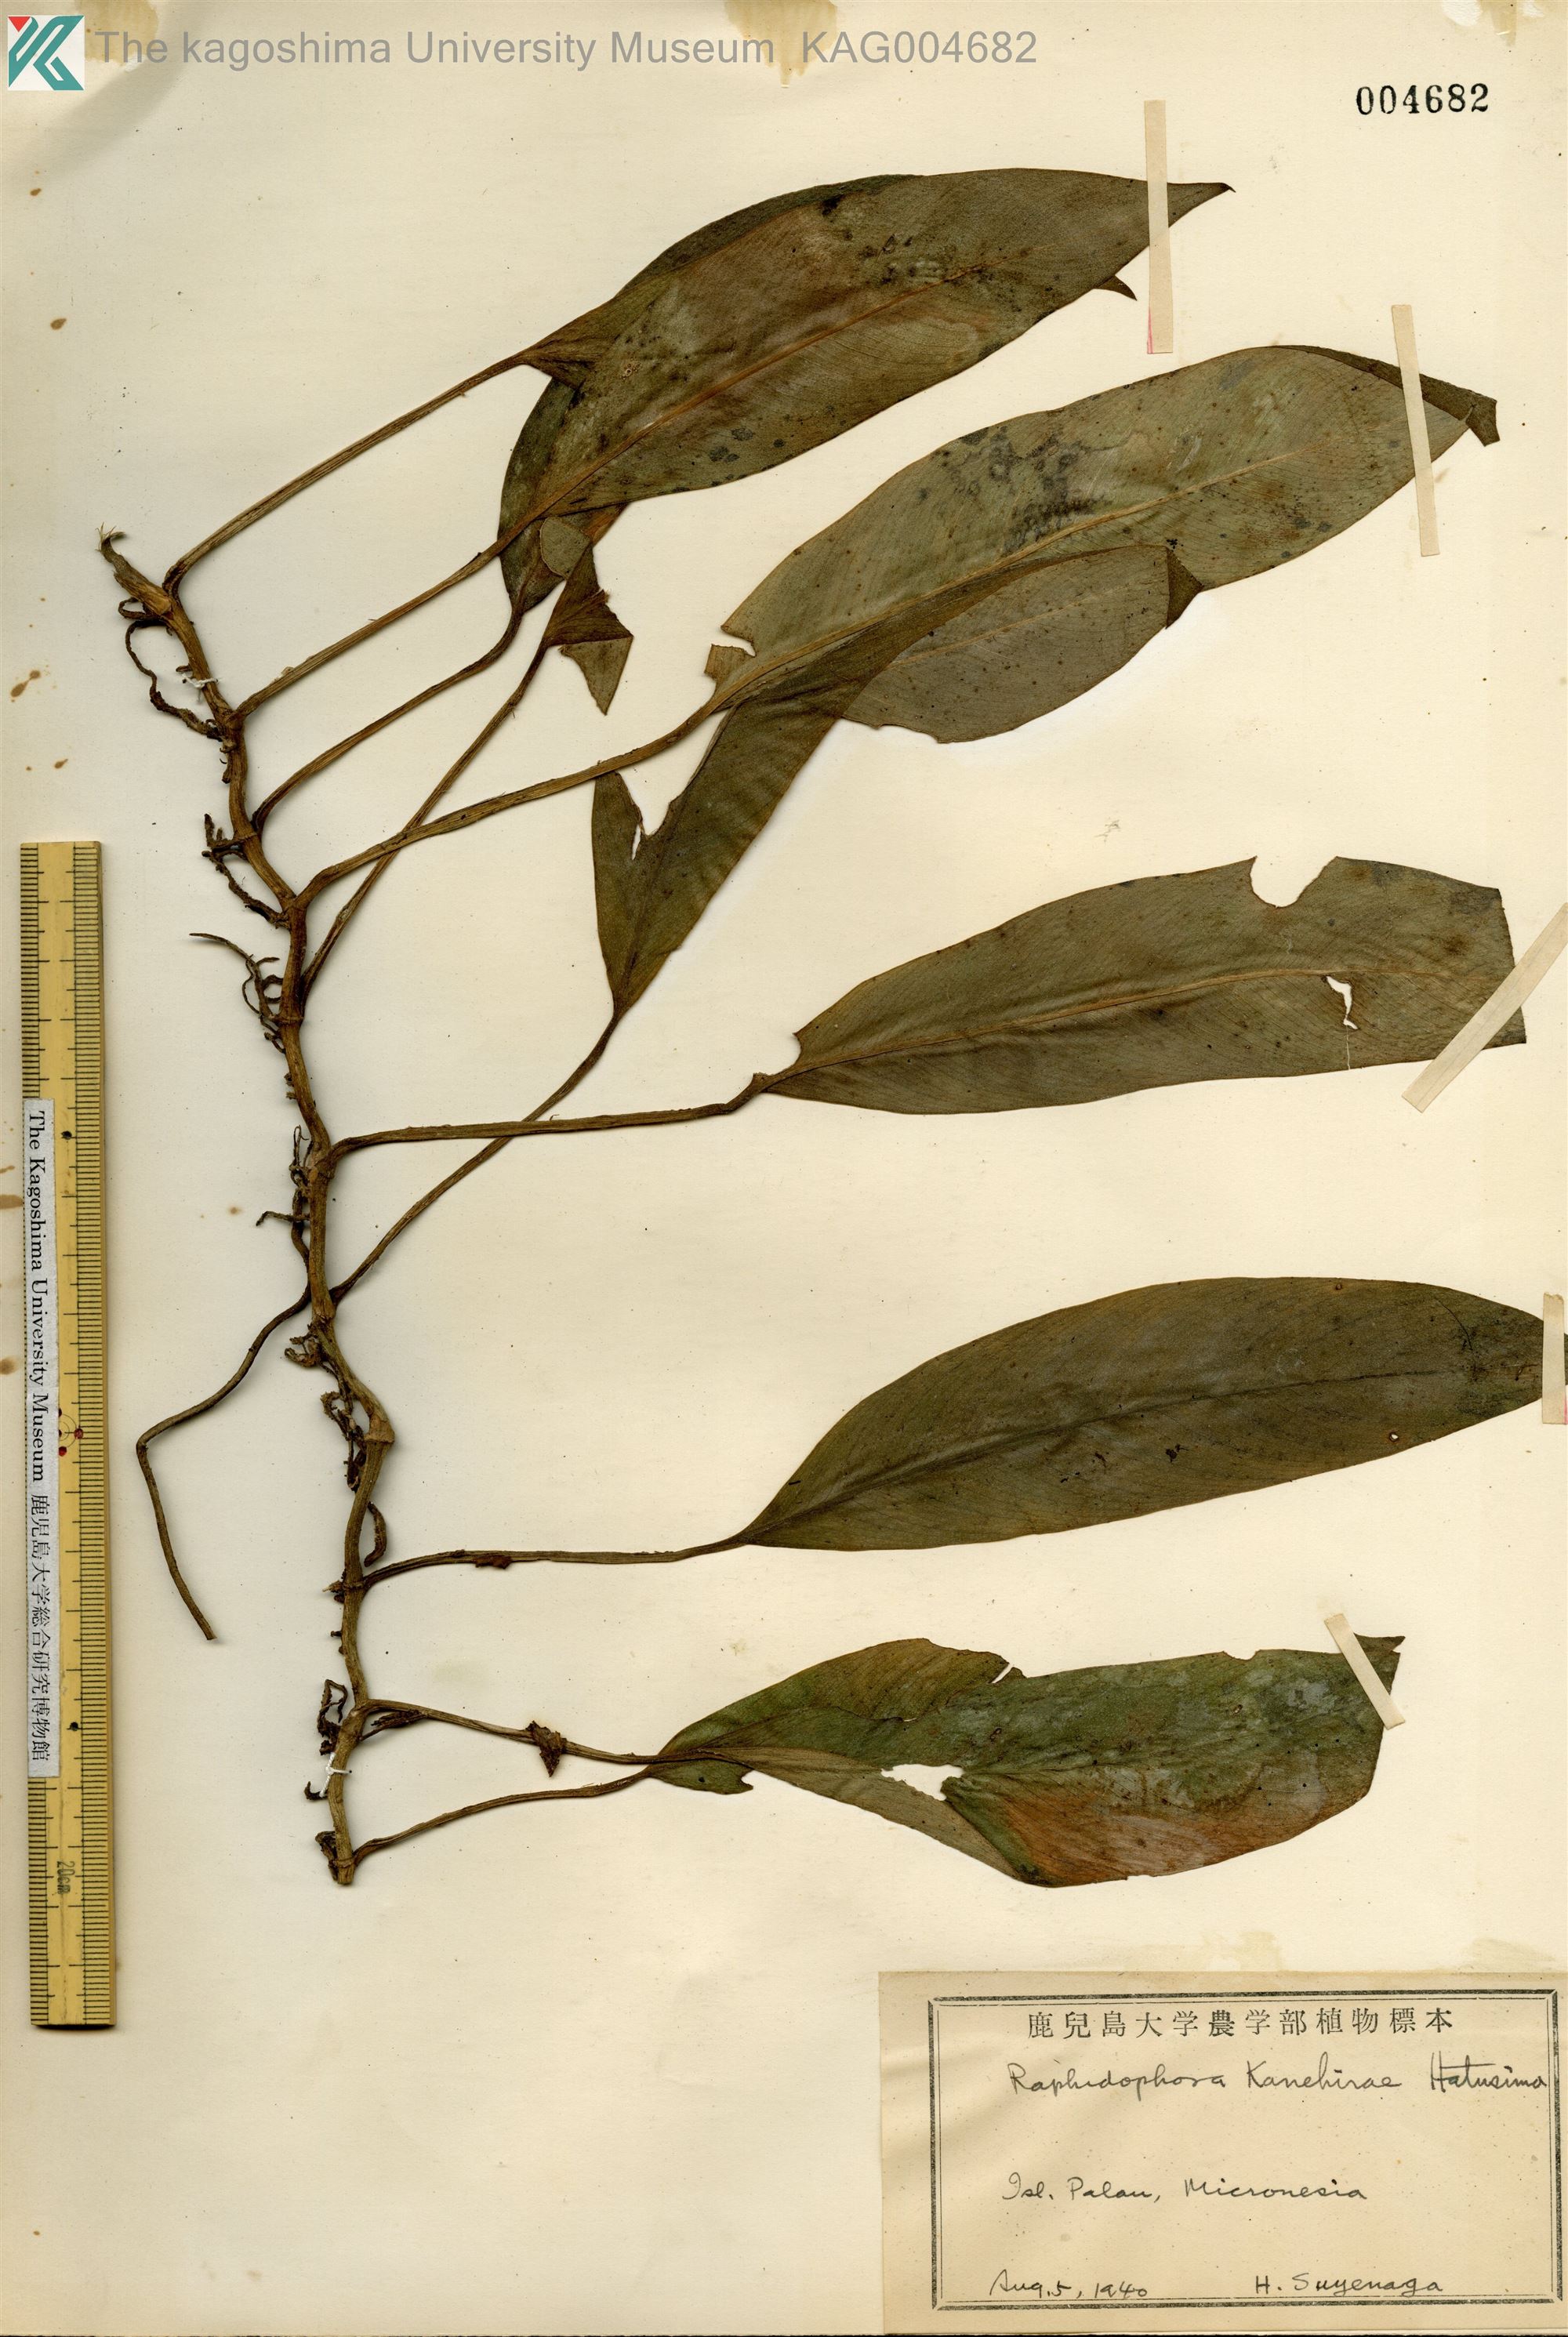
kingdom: Plantae
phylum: Tracheophyta
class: Liliopsida
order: Alismatales
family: Araceae
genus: Rhaphidophora
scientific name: Rhaphidophora spathacea
